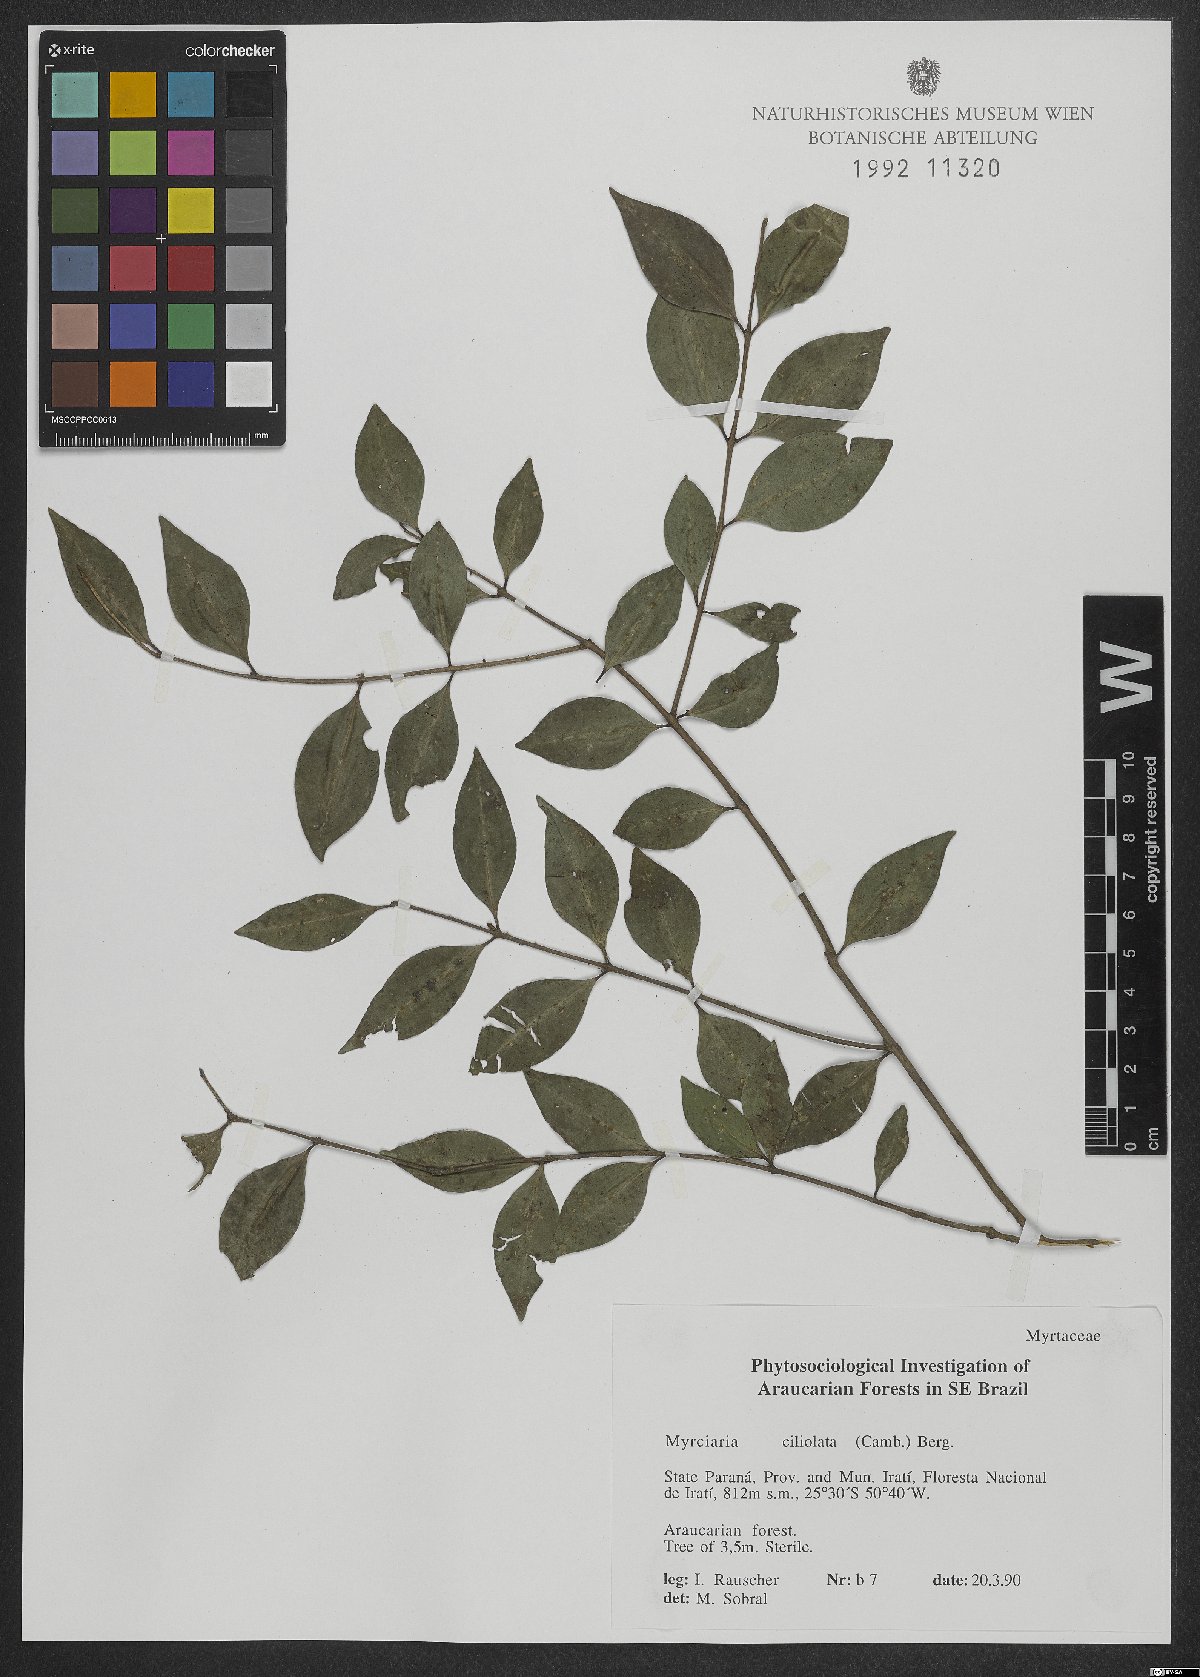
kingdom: Plantae
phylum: Tracheophyta
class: Magnoliopsida
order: Myrtales
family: Myrtaceae
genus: Myrciaria
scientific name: Myrciaria ciliolata
